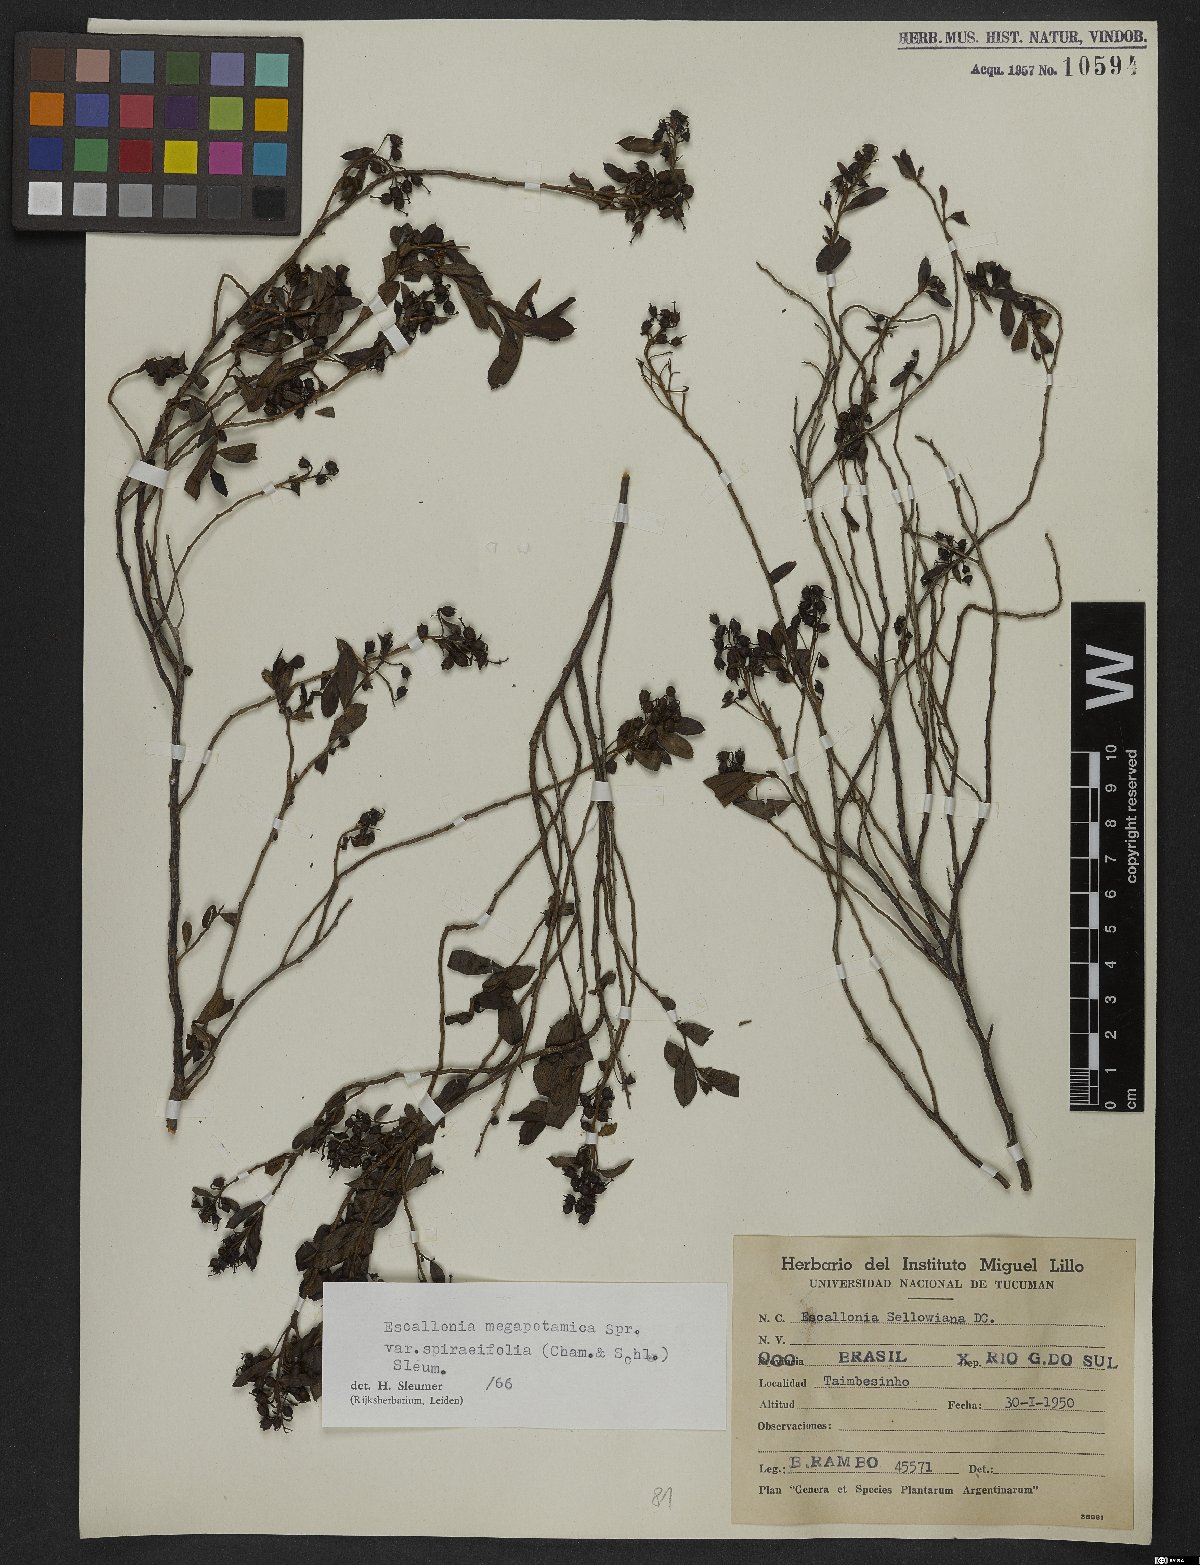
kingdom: Plantae
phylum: Tracheophyta
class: Magnoliopsida
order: Escalloniales
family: Escalloniaceae
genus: Escallonia
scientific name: Escallonia megapotamica
